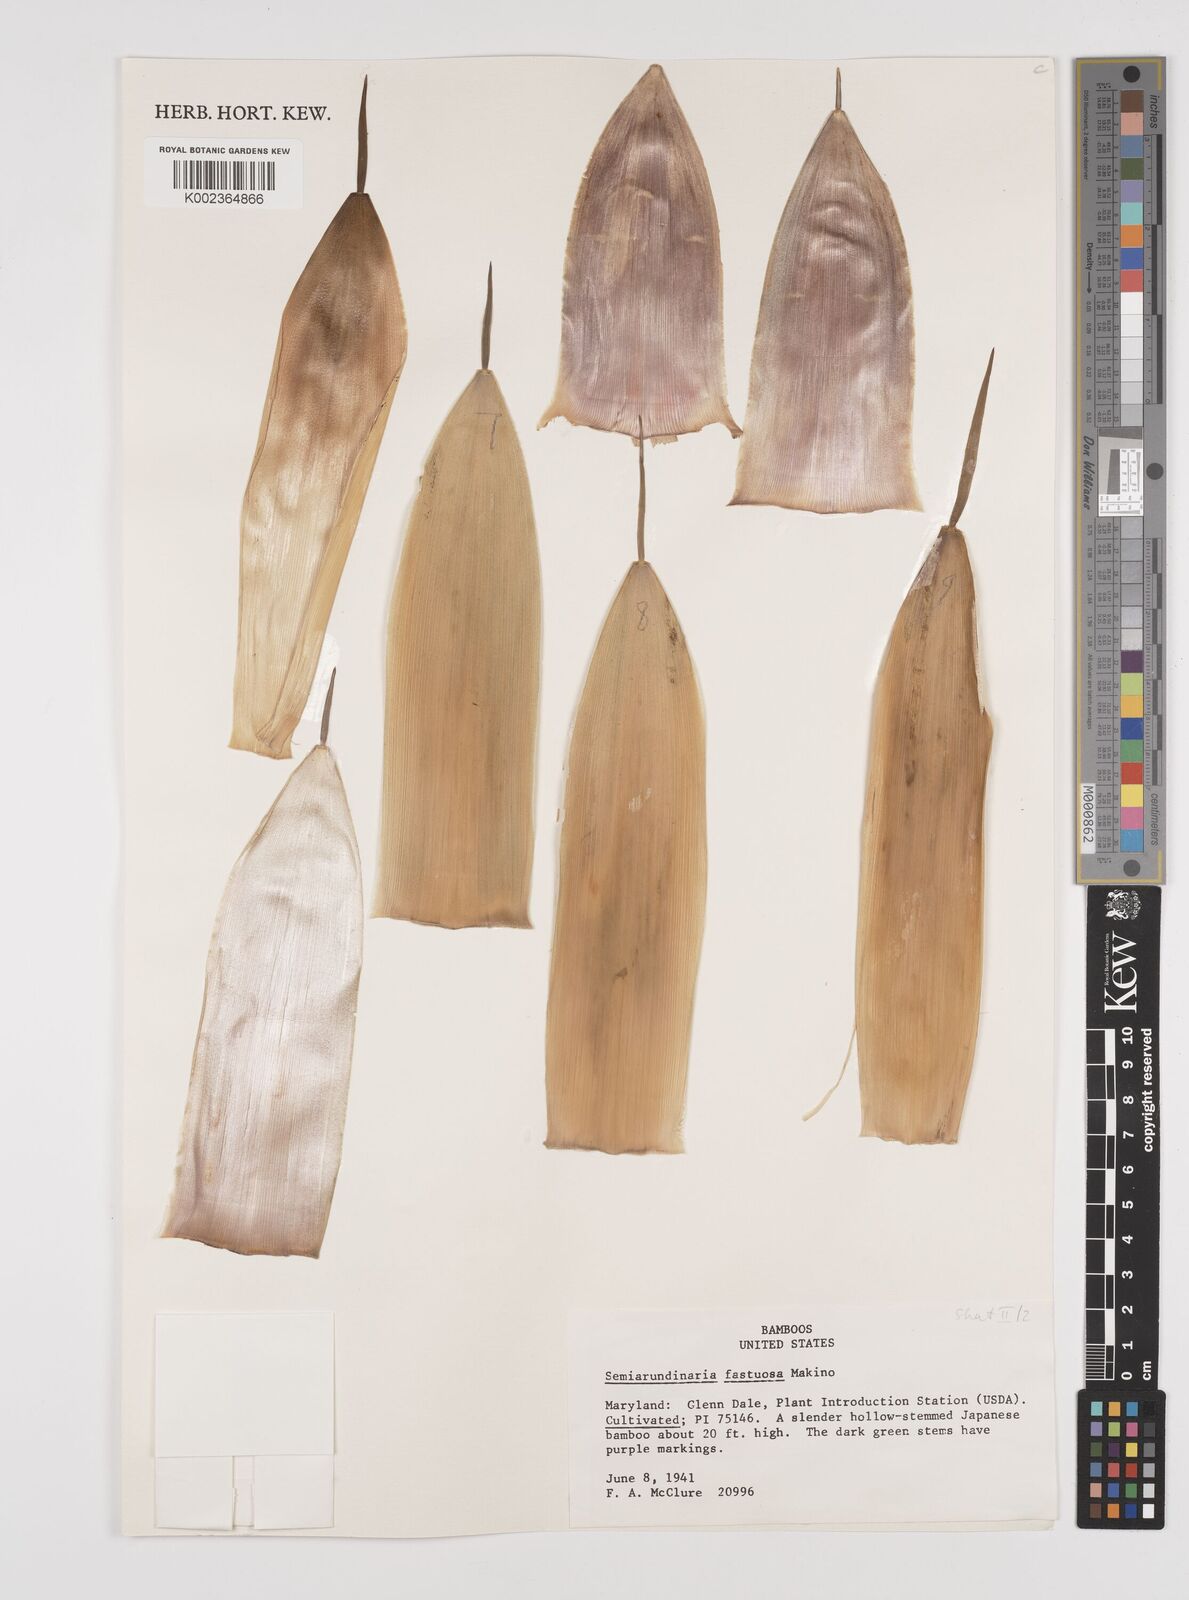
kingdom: Plantae
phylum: Tracheophyta
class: Liliopsida
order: Poales
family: Poaceae
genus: Semiarundinaria
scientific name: Semiarundinaria fastuosa
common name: Narihira bamboo
